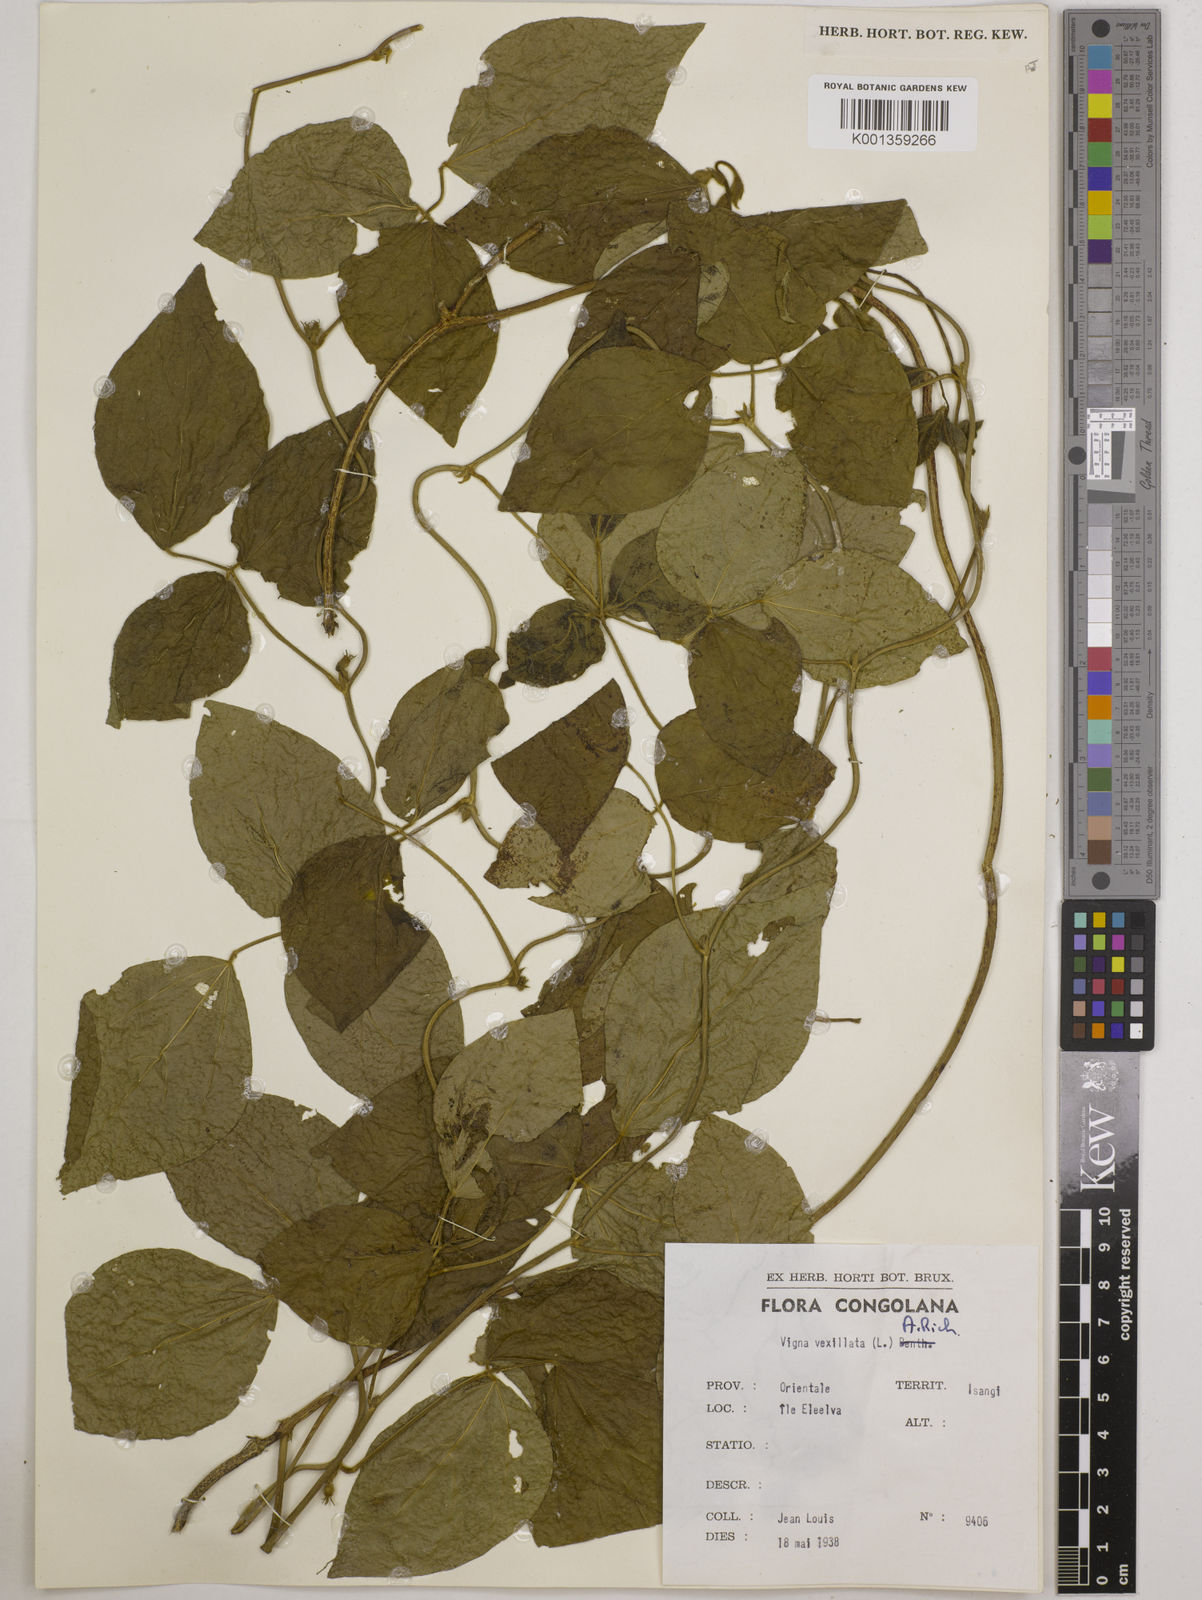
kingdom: Plantae
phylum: Tracheophyta
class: Magnoliopsida
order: Fabales
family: Fabaceae
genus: Vigna
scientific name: Vigna vexillata
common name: Zombi pea
